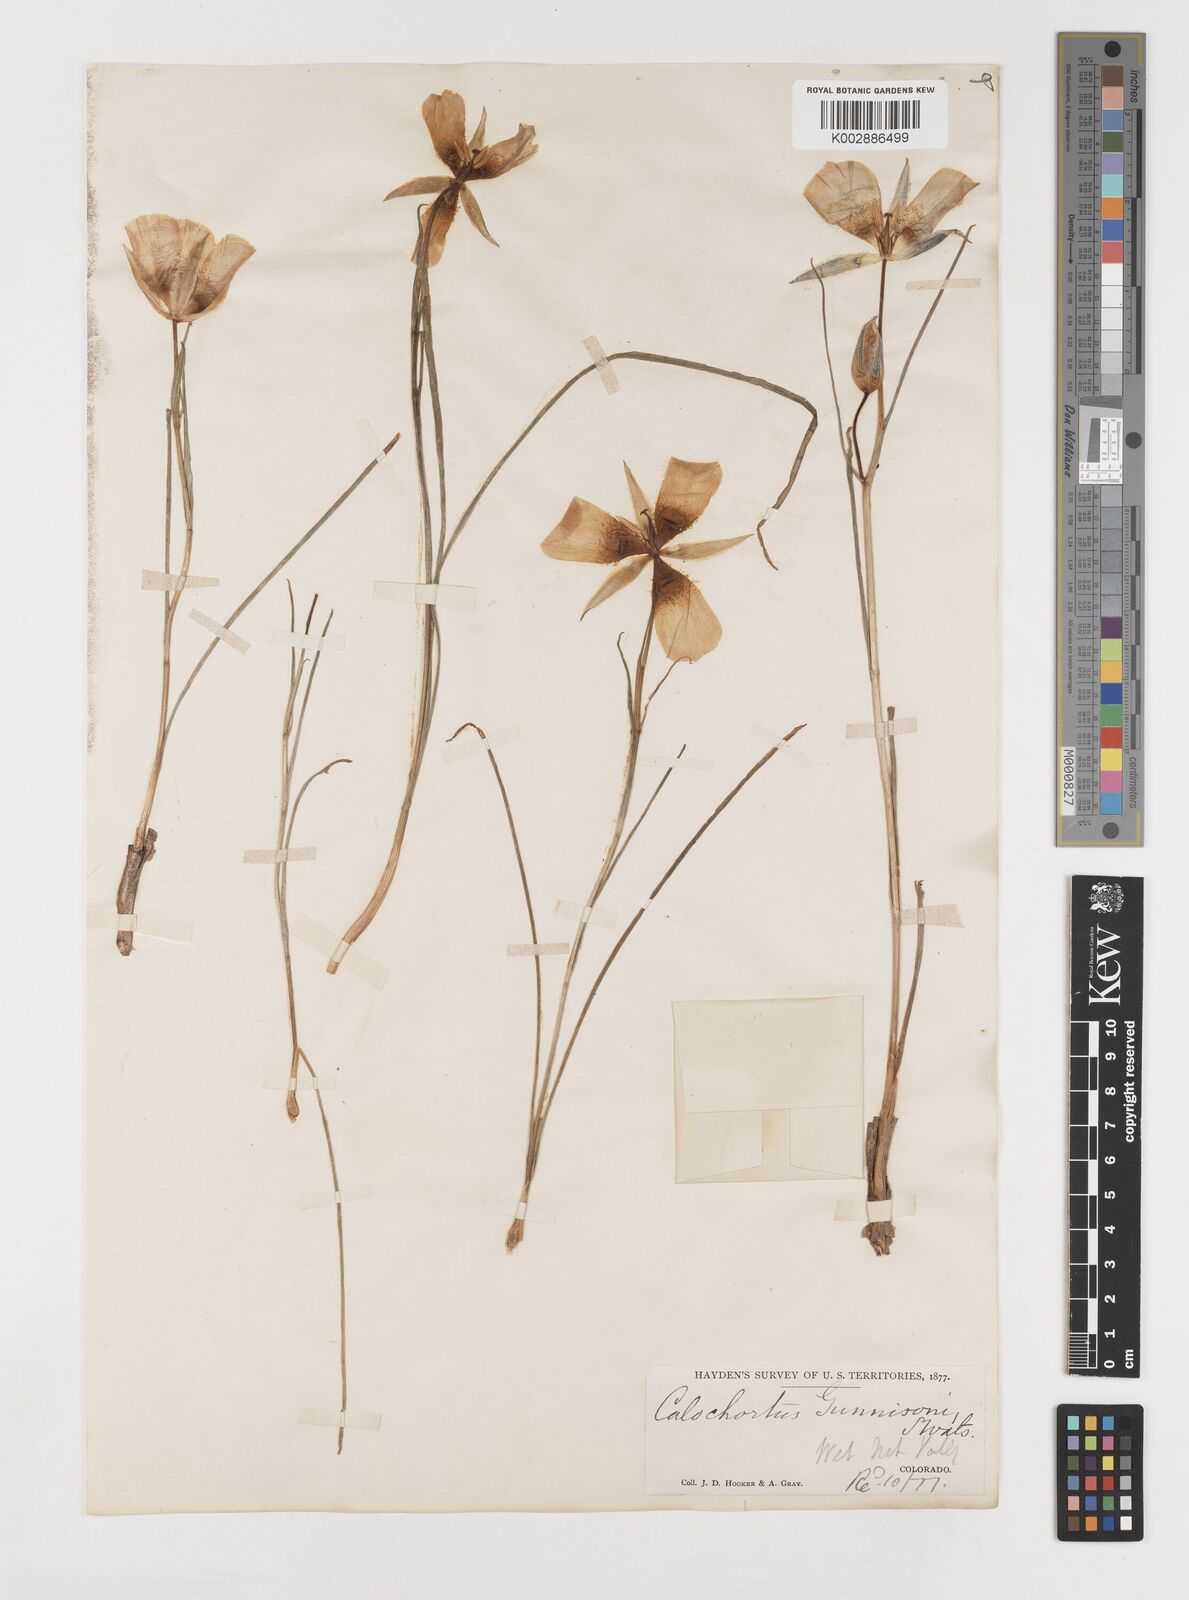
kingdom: Plantae
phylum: Tracheophyta
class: Liliopsida
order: Liliales
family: Liliaceae
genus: Calochortus
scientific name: Calochortus gunnisonii
